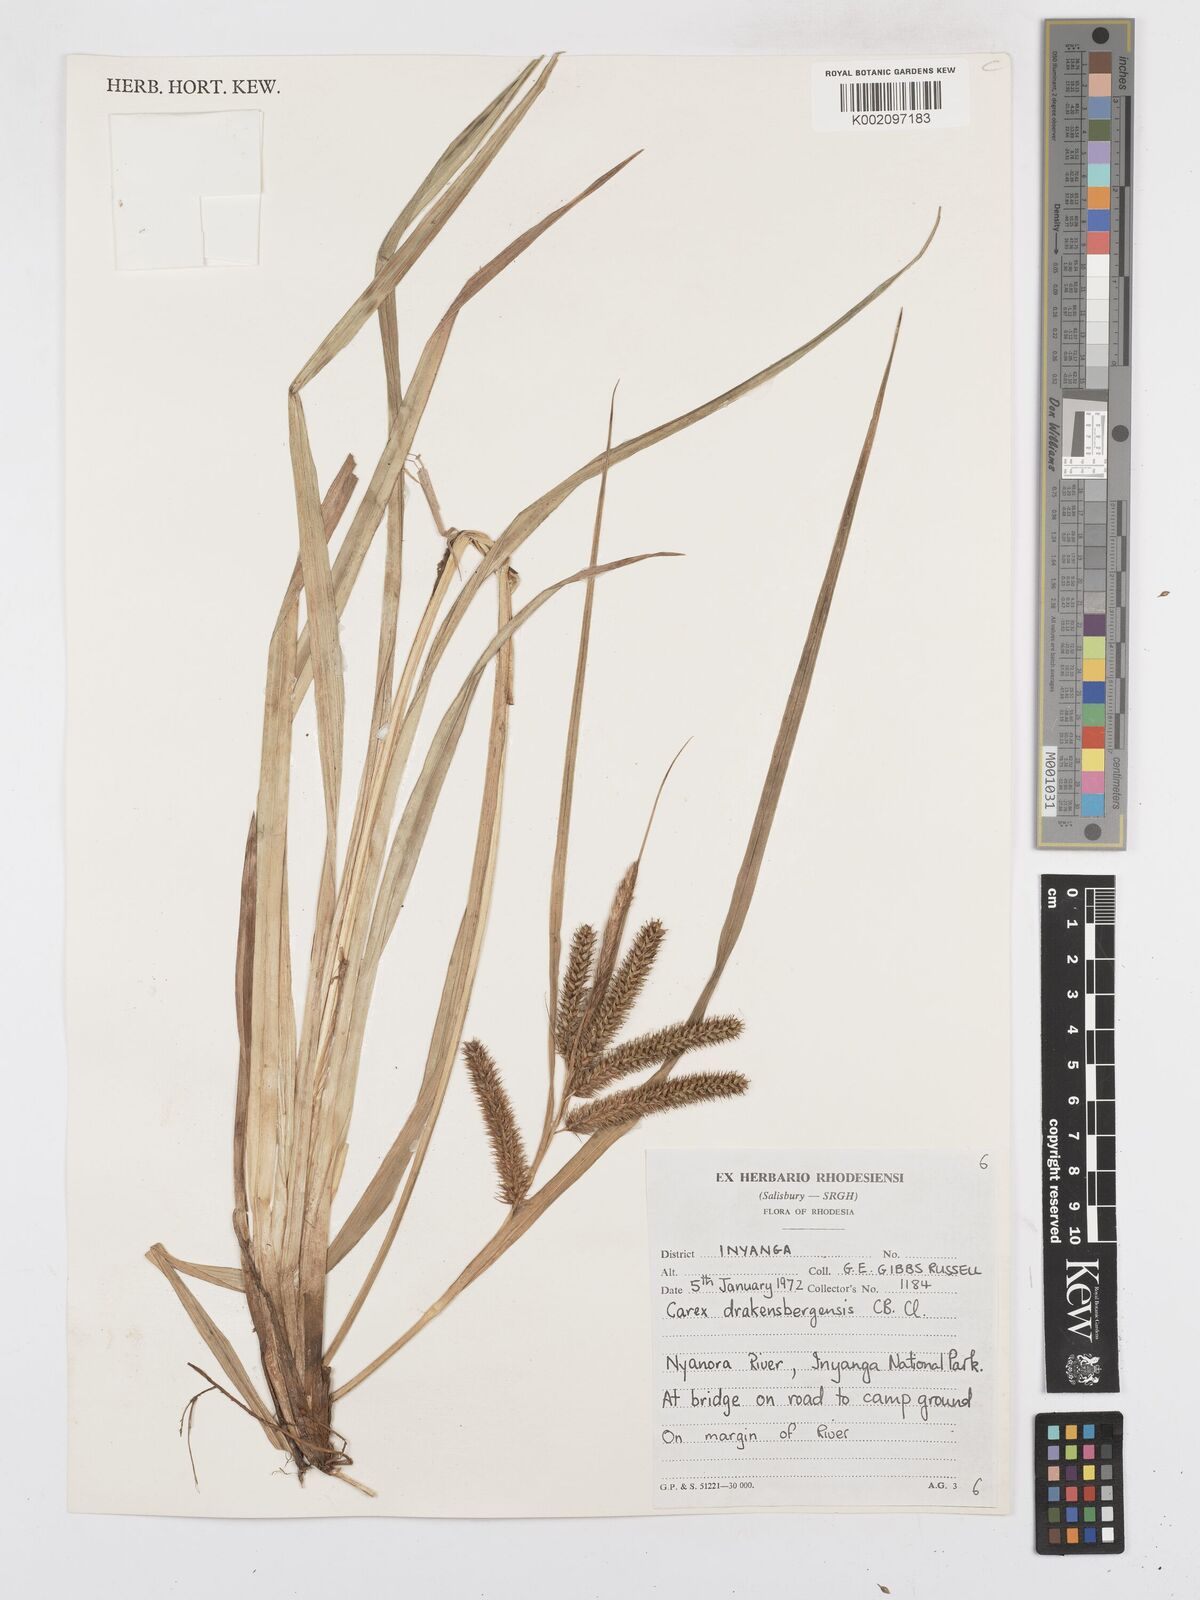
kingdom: Plantae
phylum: Tracheophyta
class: Liliopsida
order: Poales
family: Cyperaceae
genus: Carex
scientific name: Carex cognata
